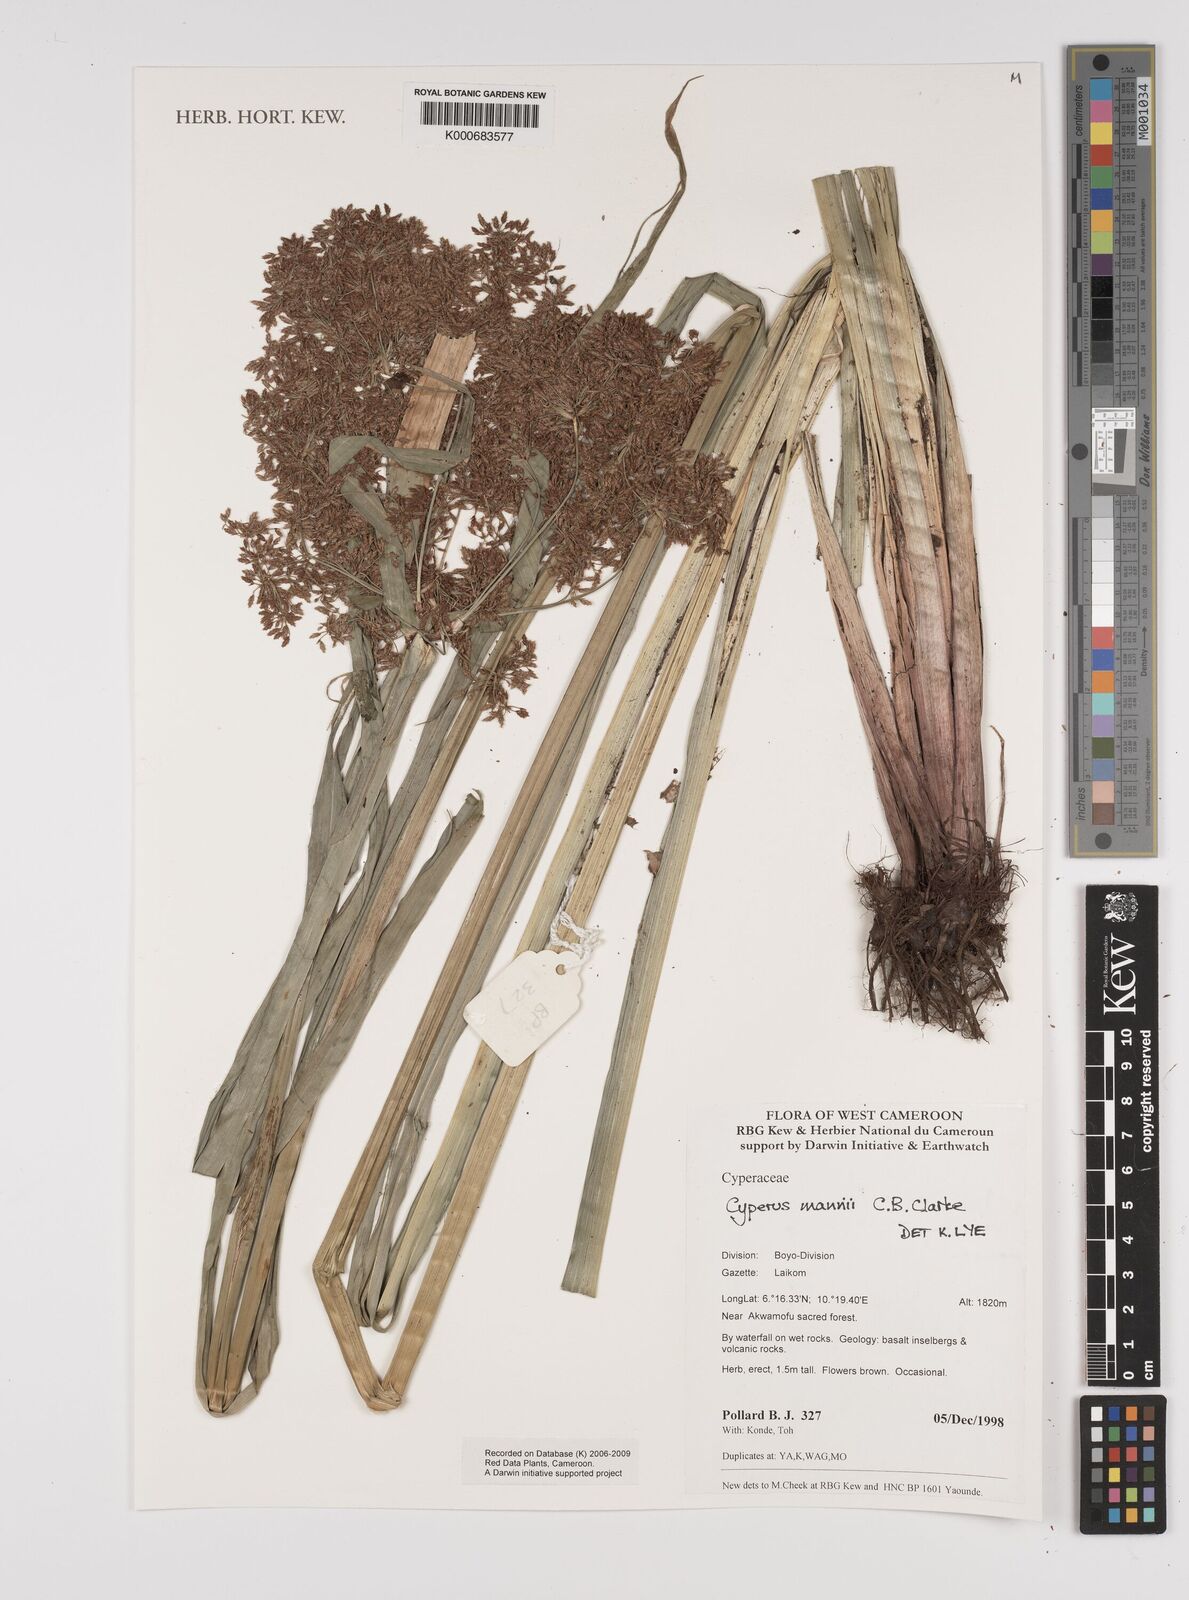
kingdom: Plantae
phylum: Tracheophyta
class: Liliopsida
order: Poales
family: Cyperaceae
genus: Cyperus
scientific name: Cyperus baronii
